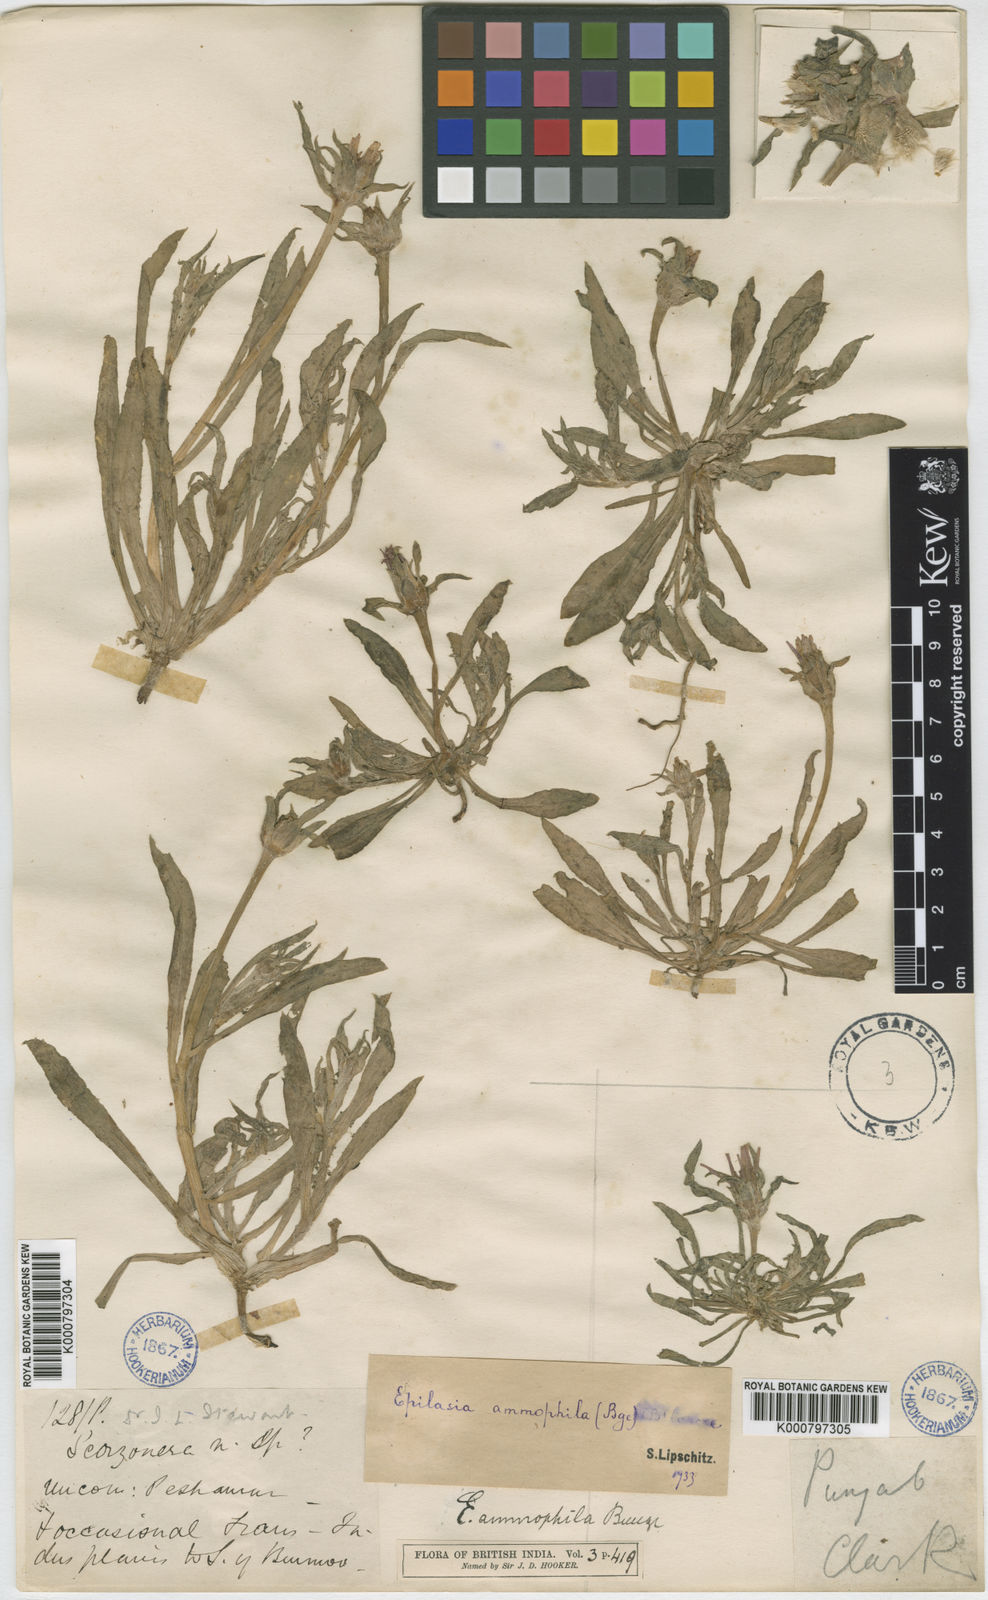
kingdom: Plantae
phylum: Tracheophyta
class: Magnoliopsida
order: Asterales
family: Asteraceae
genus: Epilasia
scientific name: Epilasia
